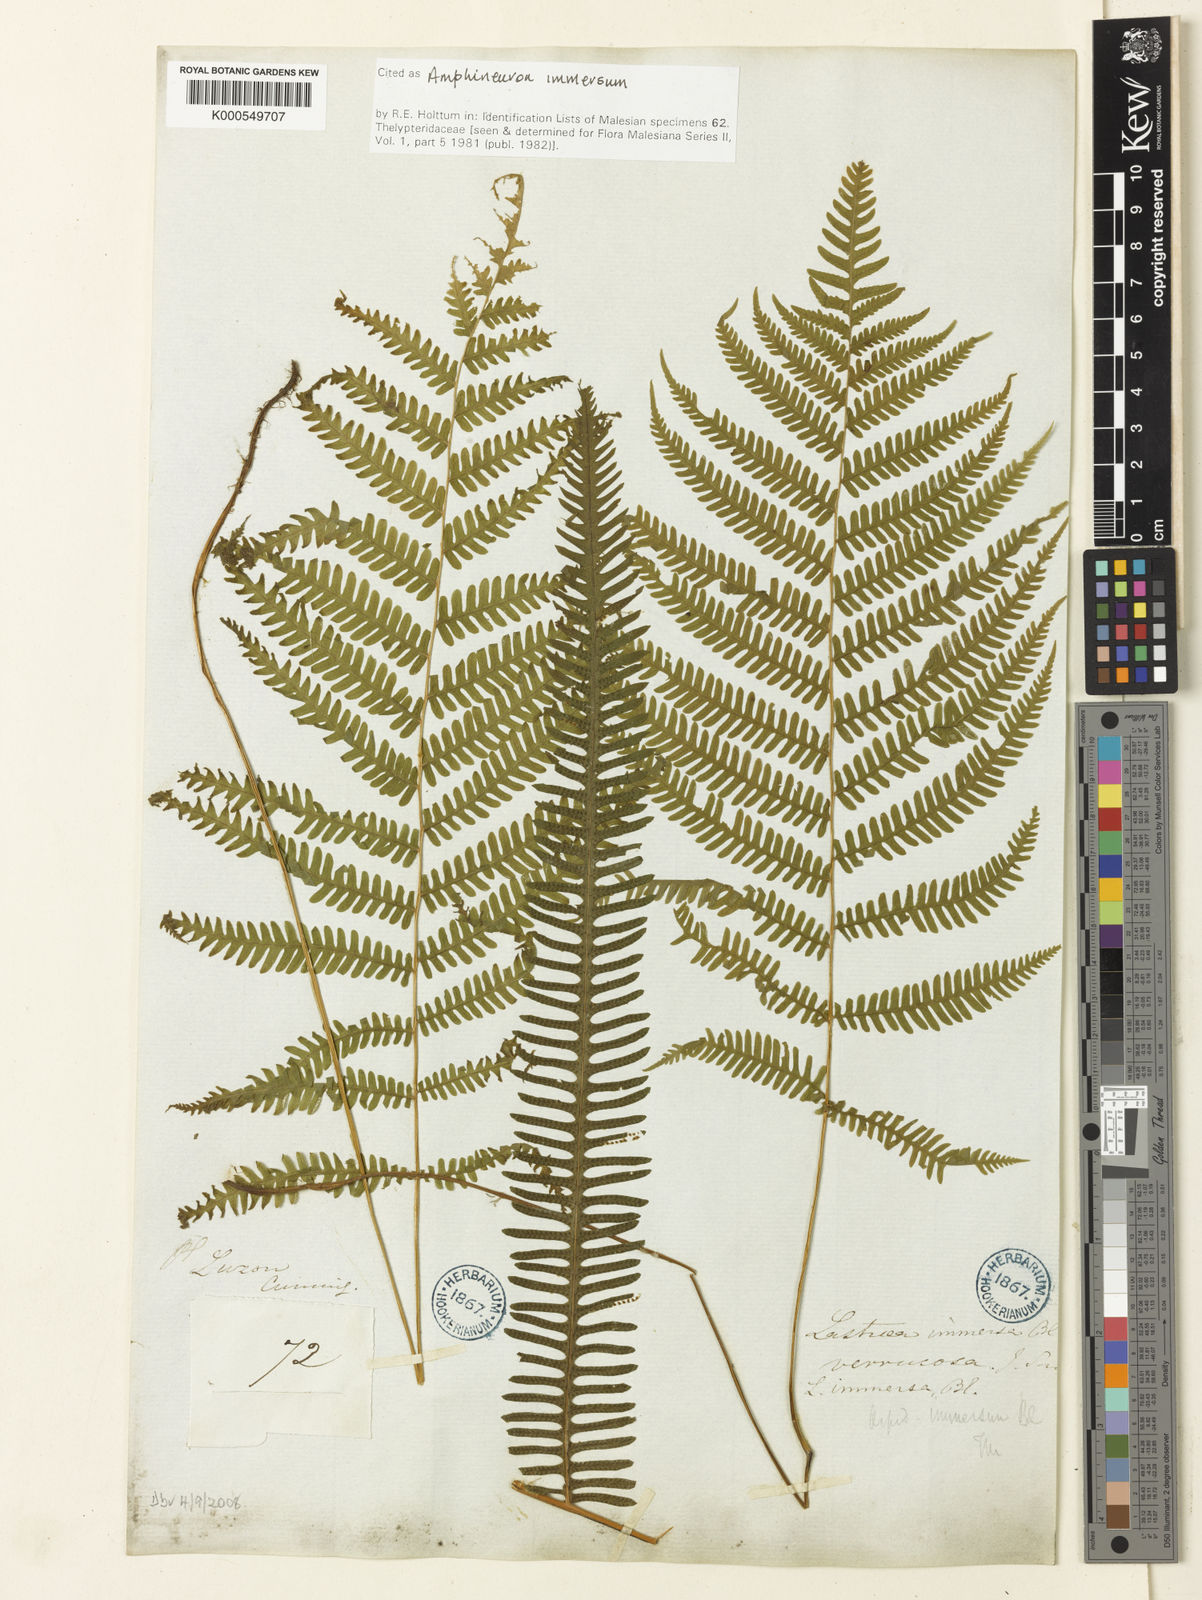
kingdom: Plantae
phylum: Tracheophyta
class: Polypodiopsida
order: Polypodiales
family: Thelypteridaceae
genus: Amblovenatum
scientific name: Amblovenatum immersum
